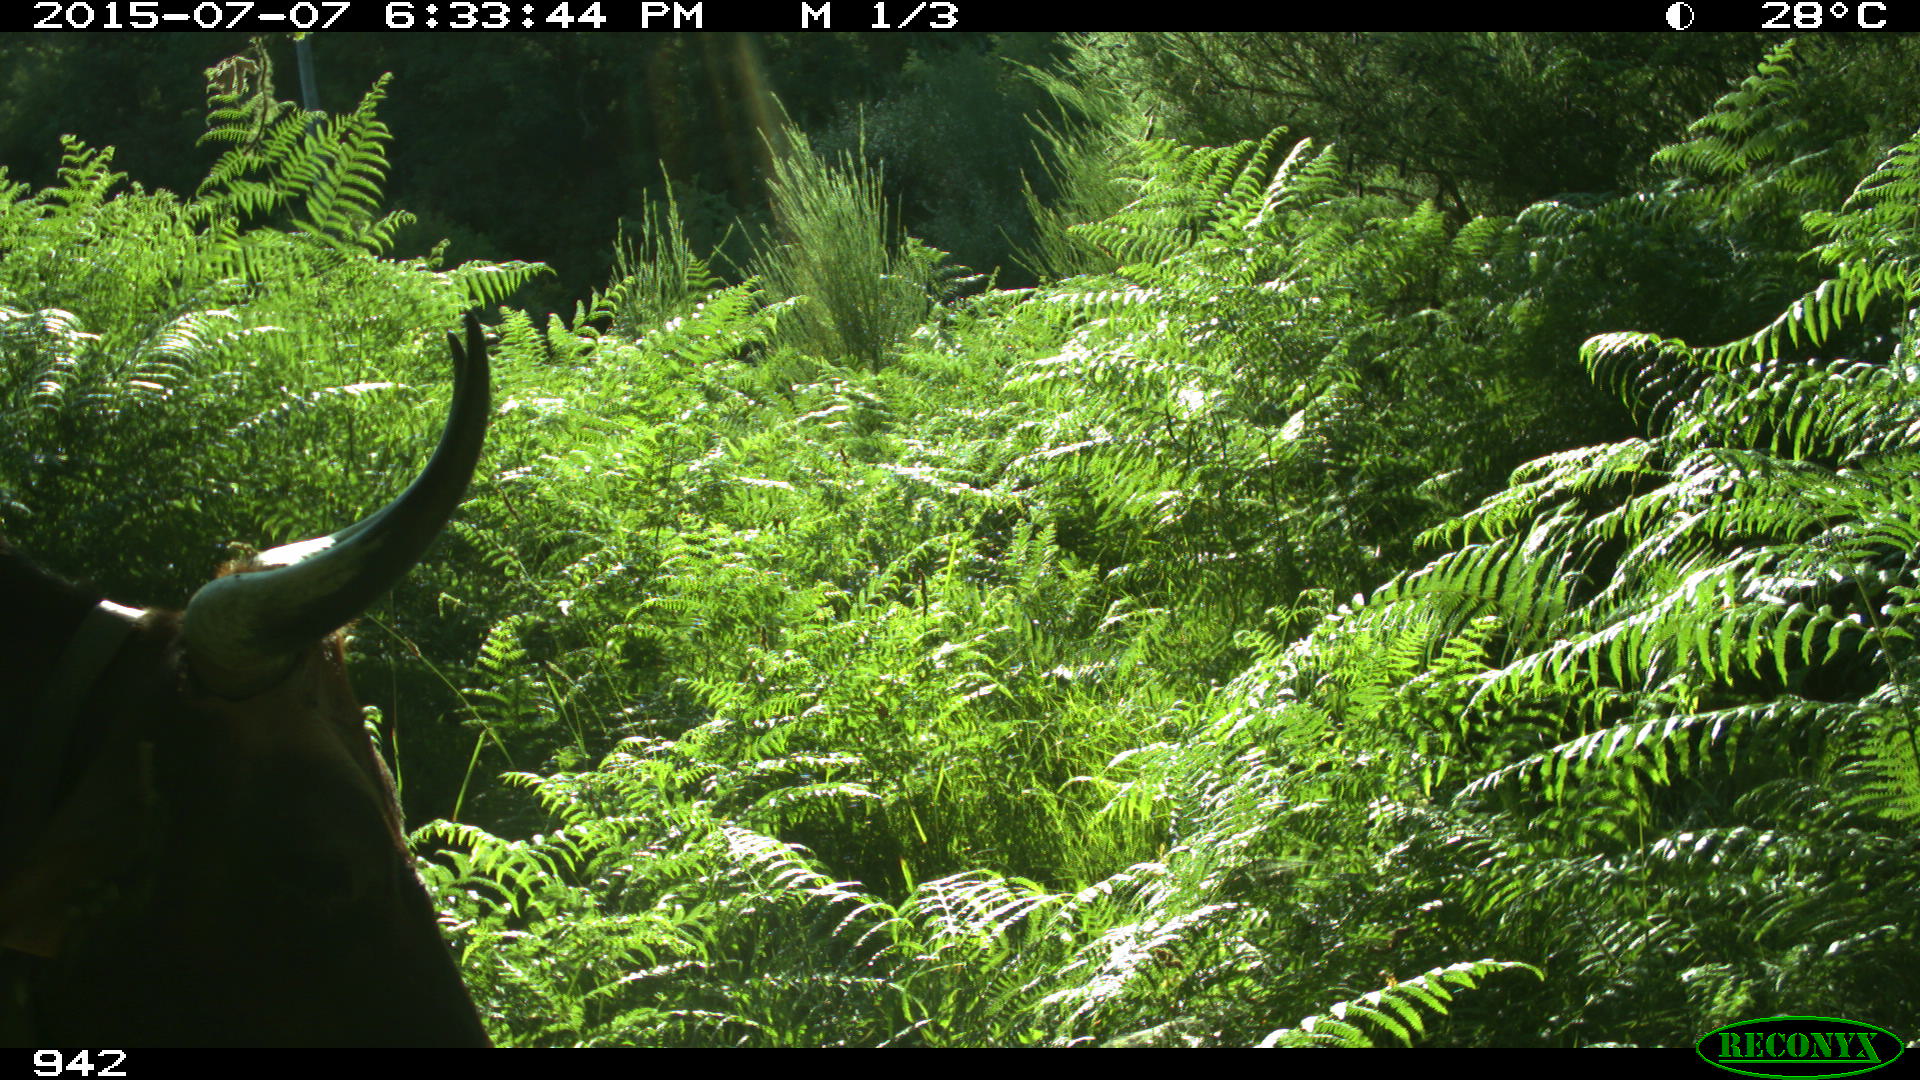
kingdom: Animalia
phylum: Chordata
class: Mammalia
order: Artiodactyla
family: Bovidae
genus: Bos
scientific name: Bos taurus
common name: Domesticated cattle
